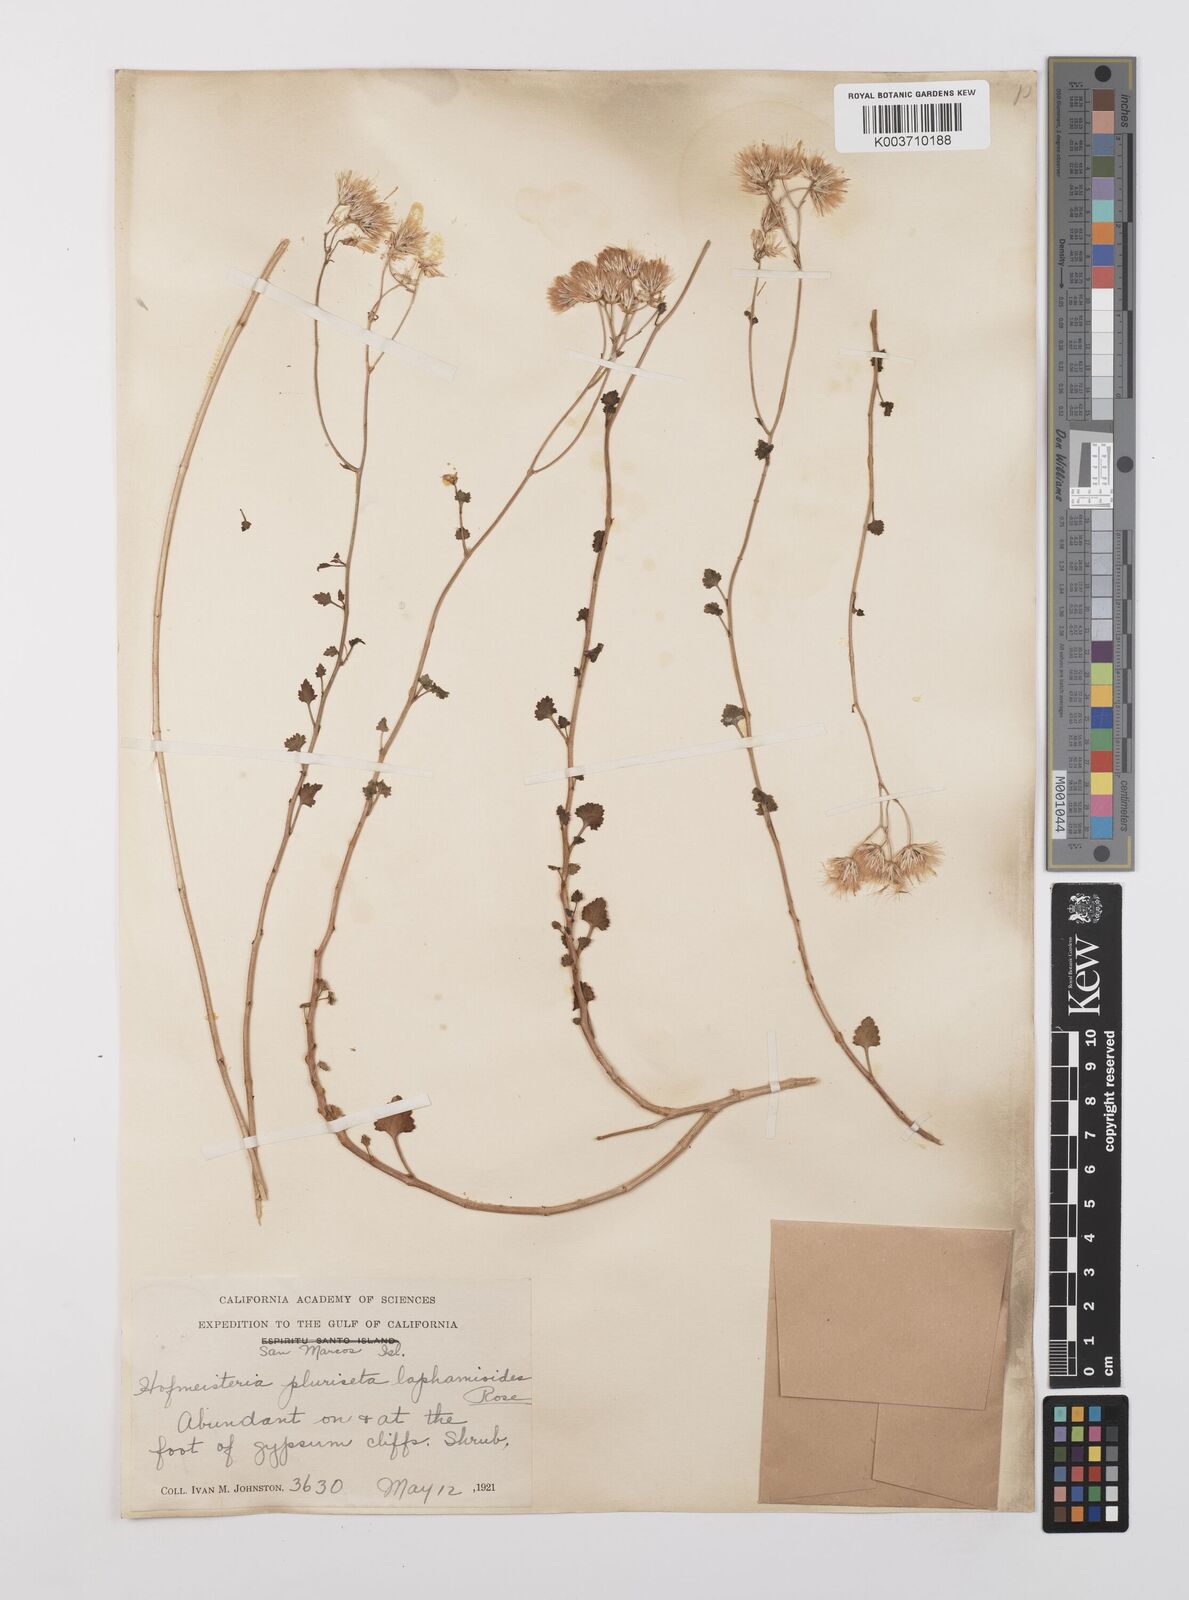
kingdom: Plantae
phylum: Tracheophyta
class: Magnoliopsida
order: Asterales
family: Asteraceae
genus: Pleurocoronis
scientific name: Pleurocoronis laphamioides
